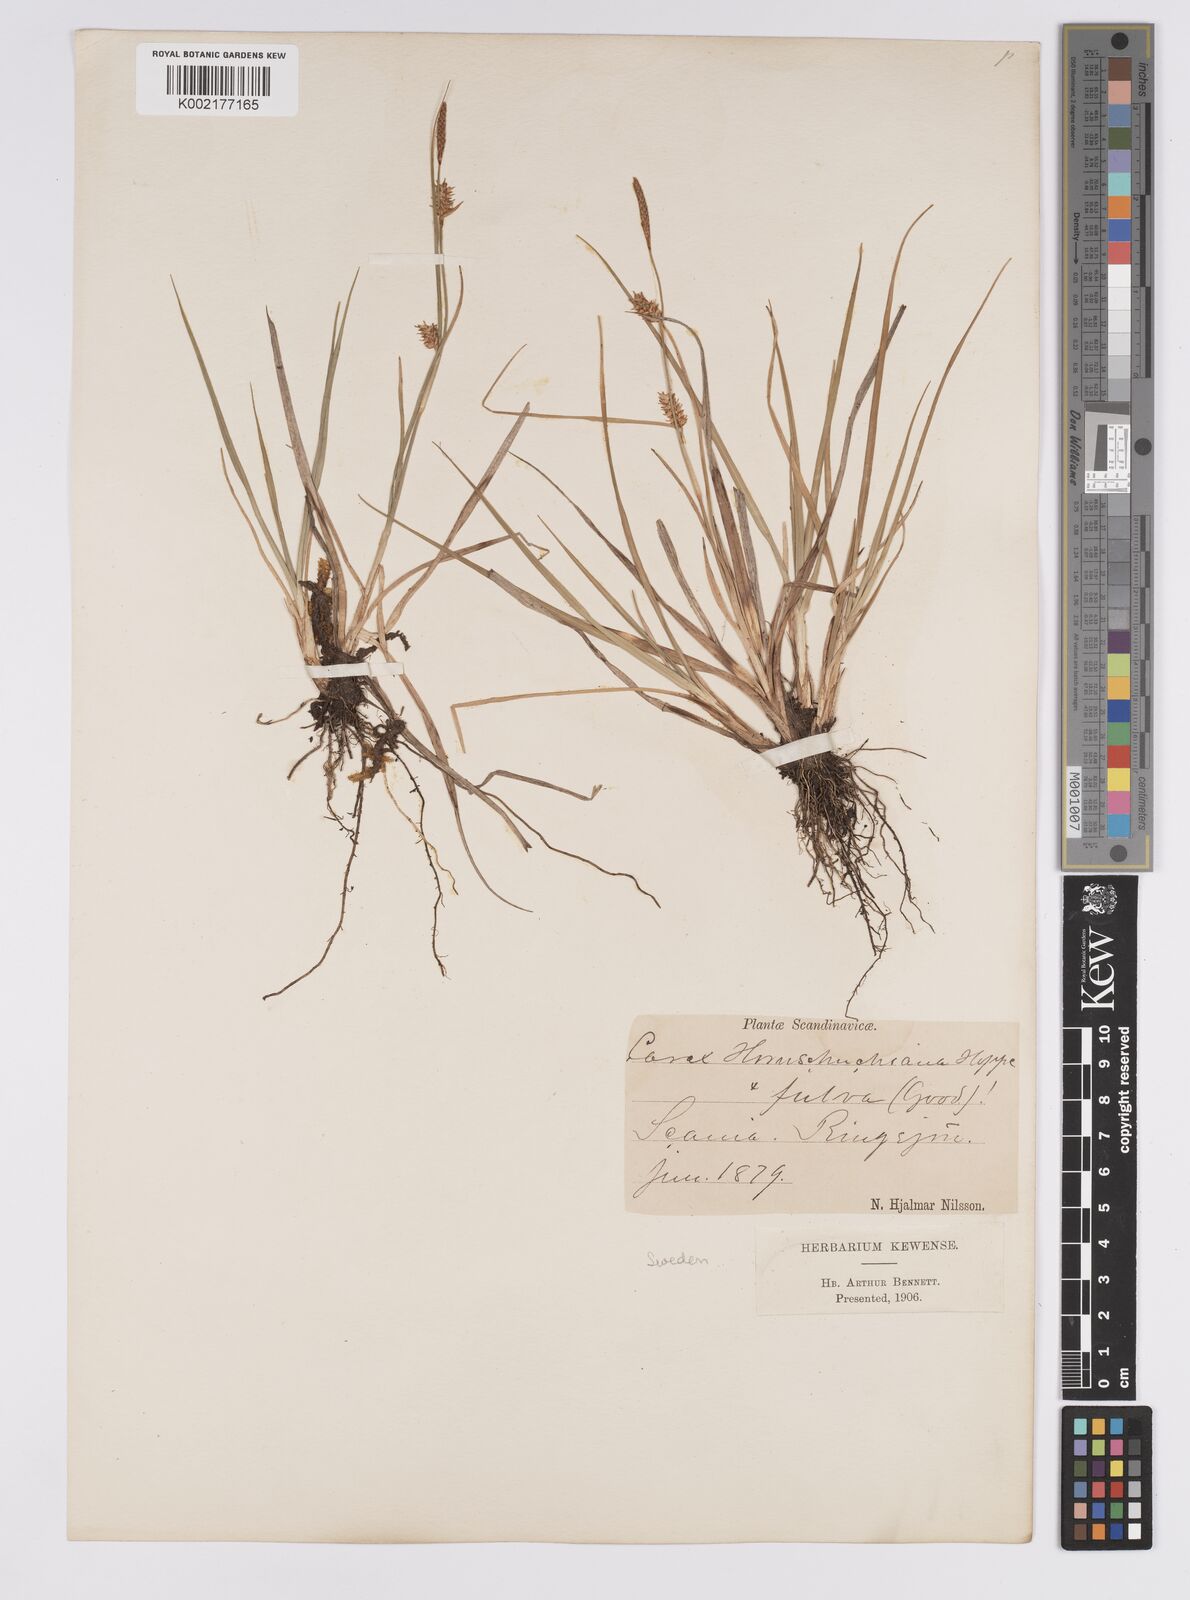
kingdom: Plantae
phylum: Tracheophyta
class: Liliopsida
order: Poales
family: Cyperaceae
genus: Carex
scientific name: Carex hostiana
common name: Tawny sedge
